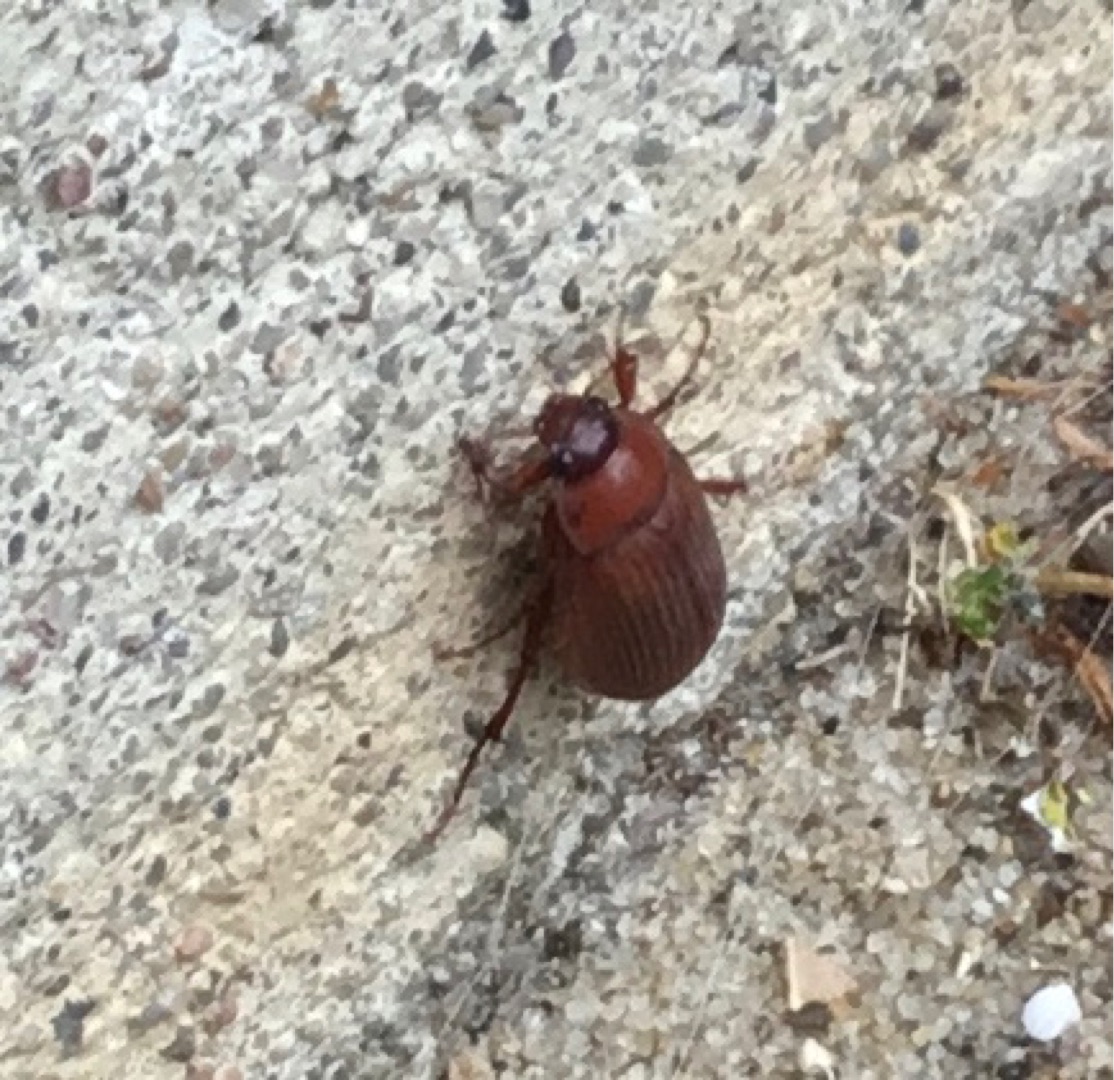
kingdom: Animalia
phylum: Arthropoda
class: Insecta
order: Coleoptera
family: Scarabaeidae
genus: Serica
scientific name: Serica brunnea
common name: Natoldenborre
